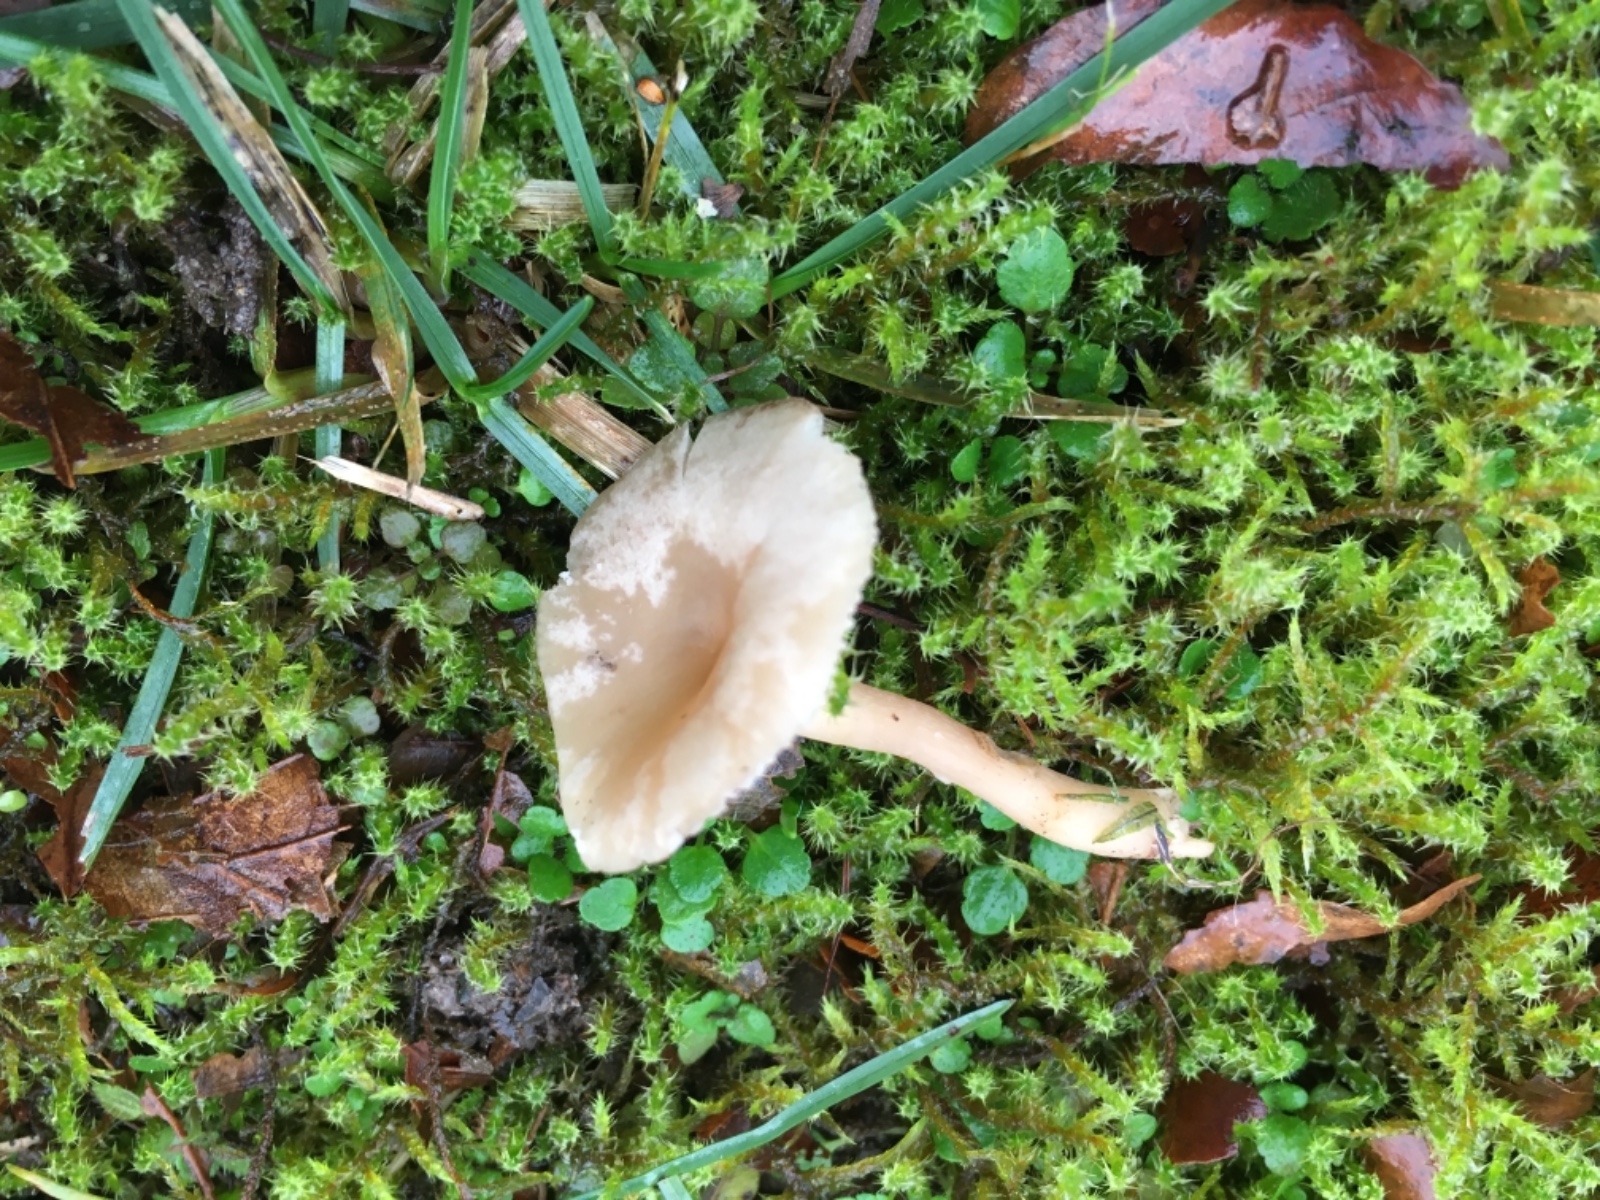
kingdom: Fungi
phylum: Basidiomycota
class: Agaricomycetes
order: Agaricales
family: Tricholomataceae
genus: Clitocybe
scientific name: Clitocybe fragrans
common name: vellugtende tragthat
